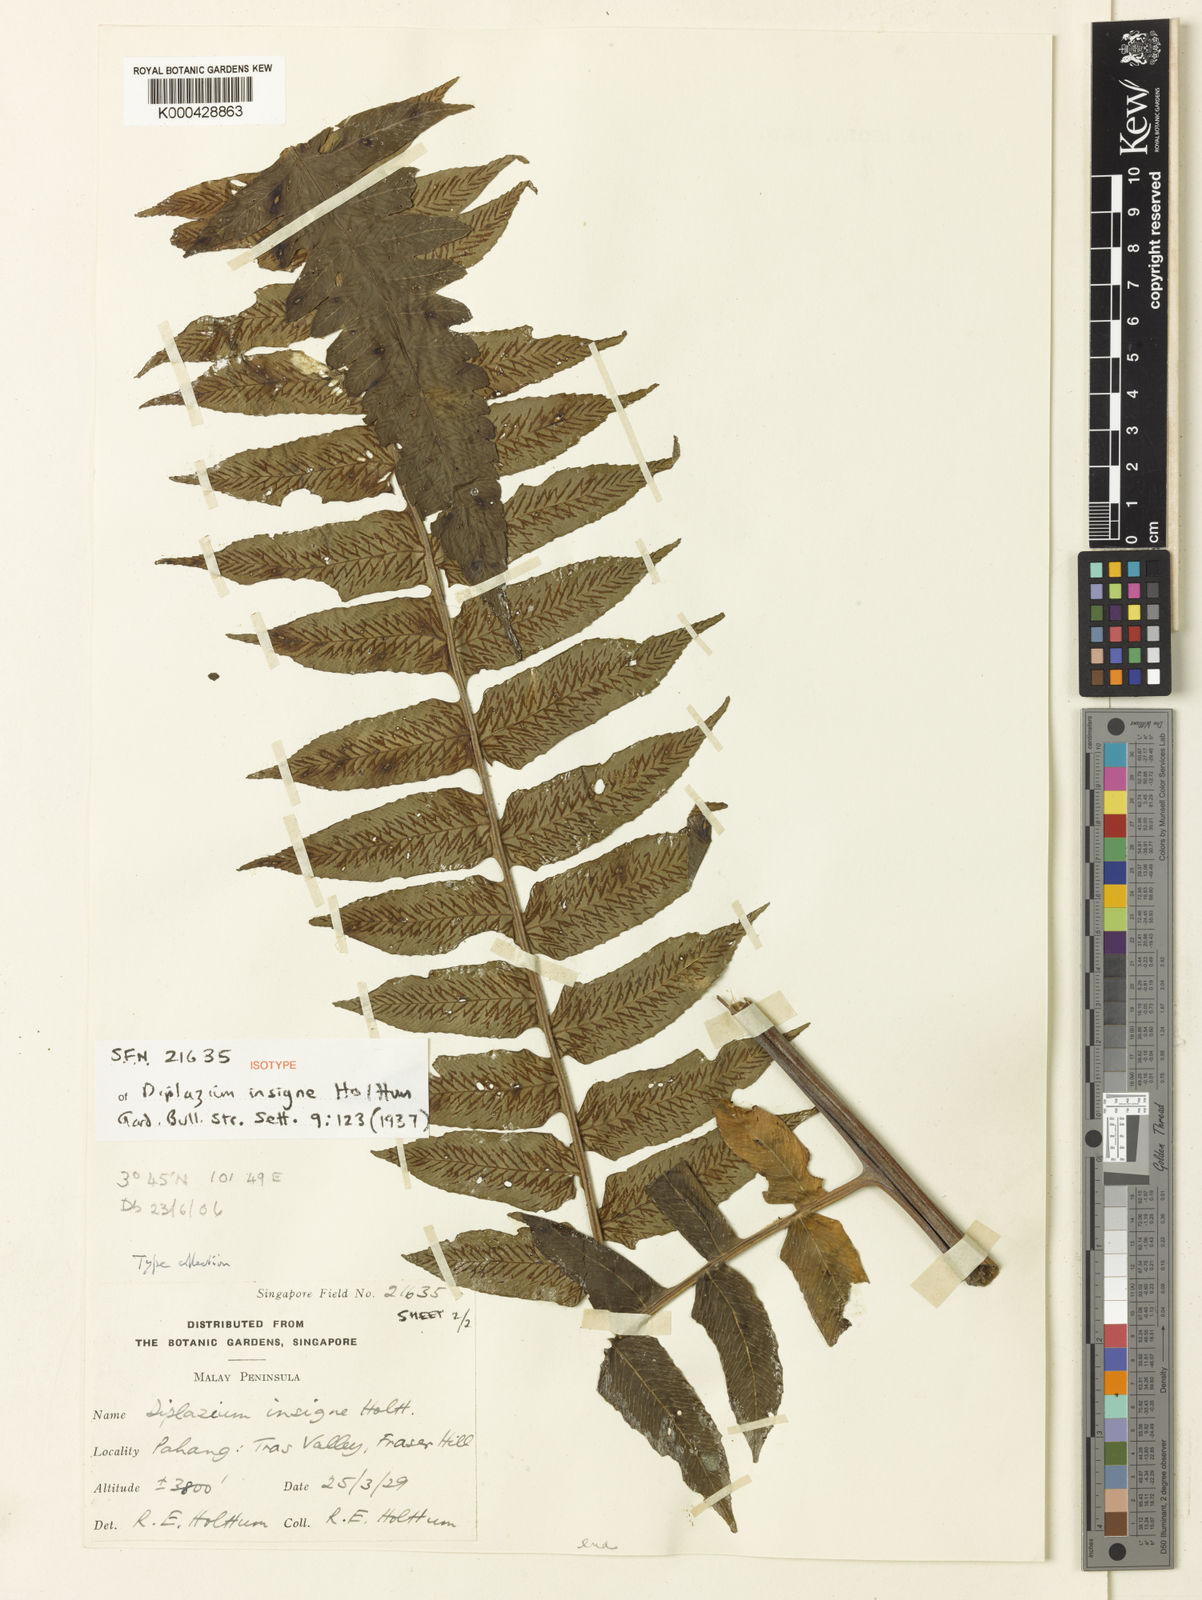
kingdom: Plantae
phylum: Tracheophyta
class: Polypodiopsida
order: Polypodiales
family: Athyriaceae
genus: Diplazium
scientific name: Diplazium insigne
